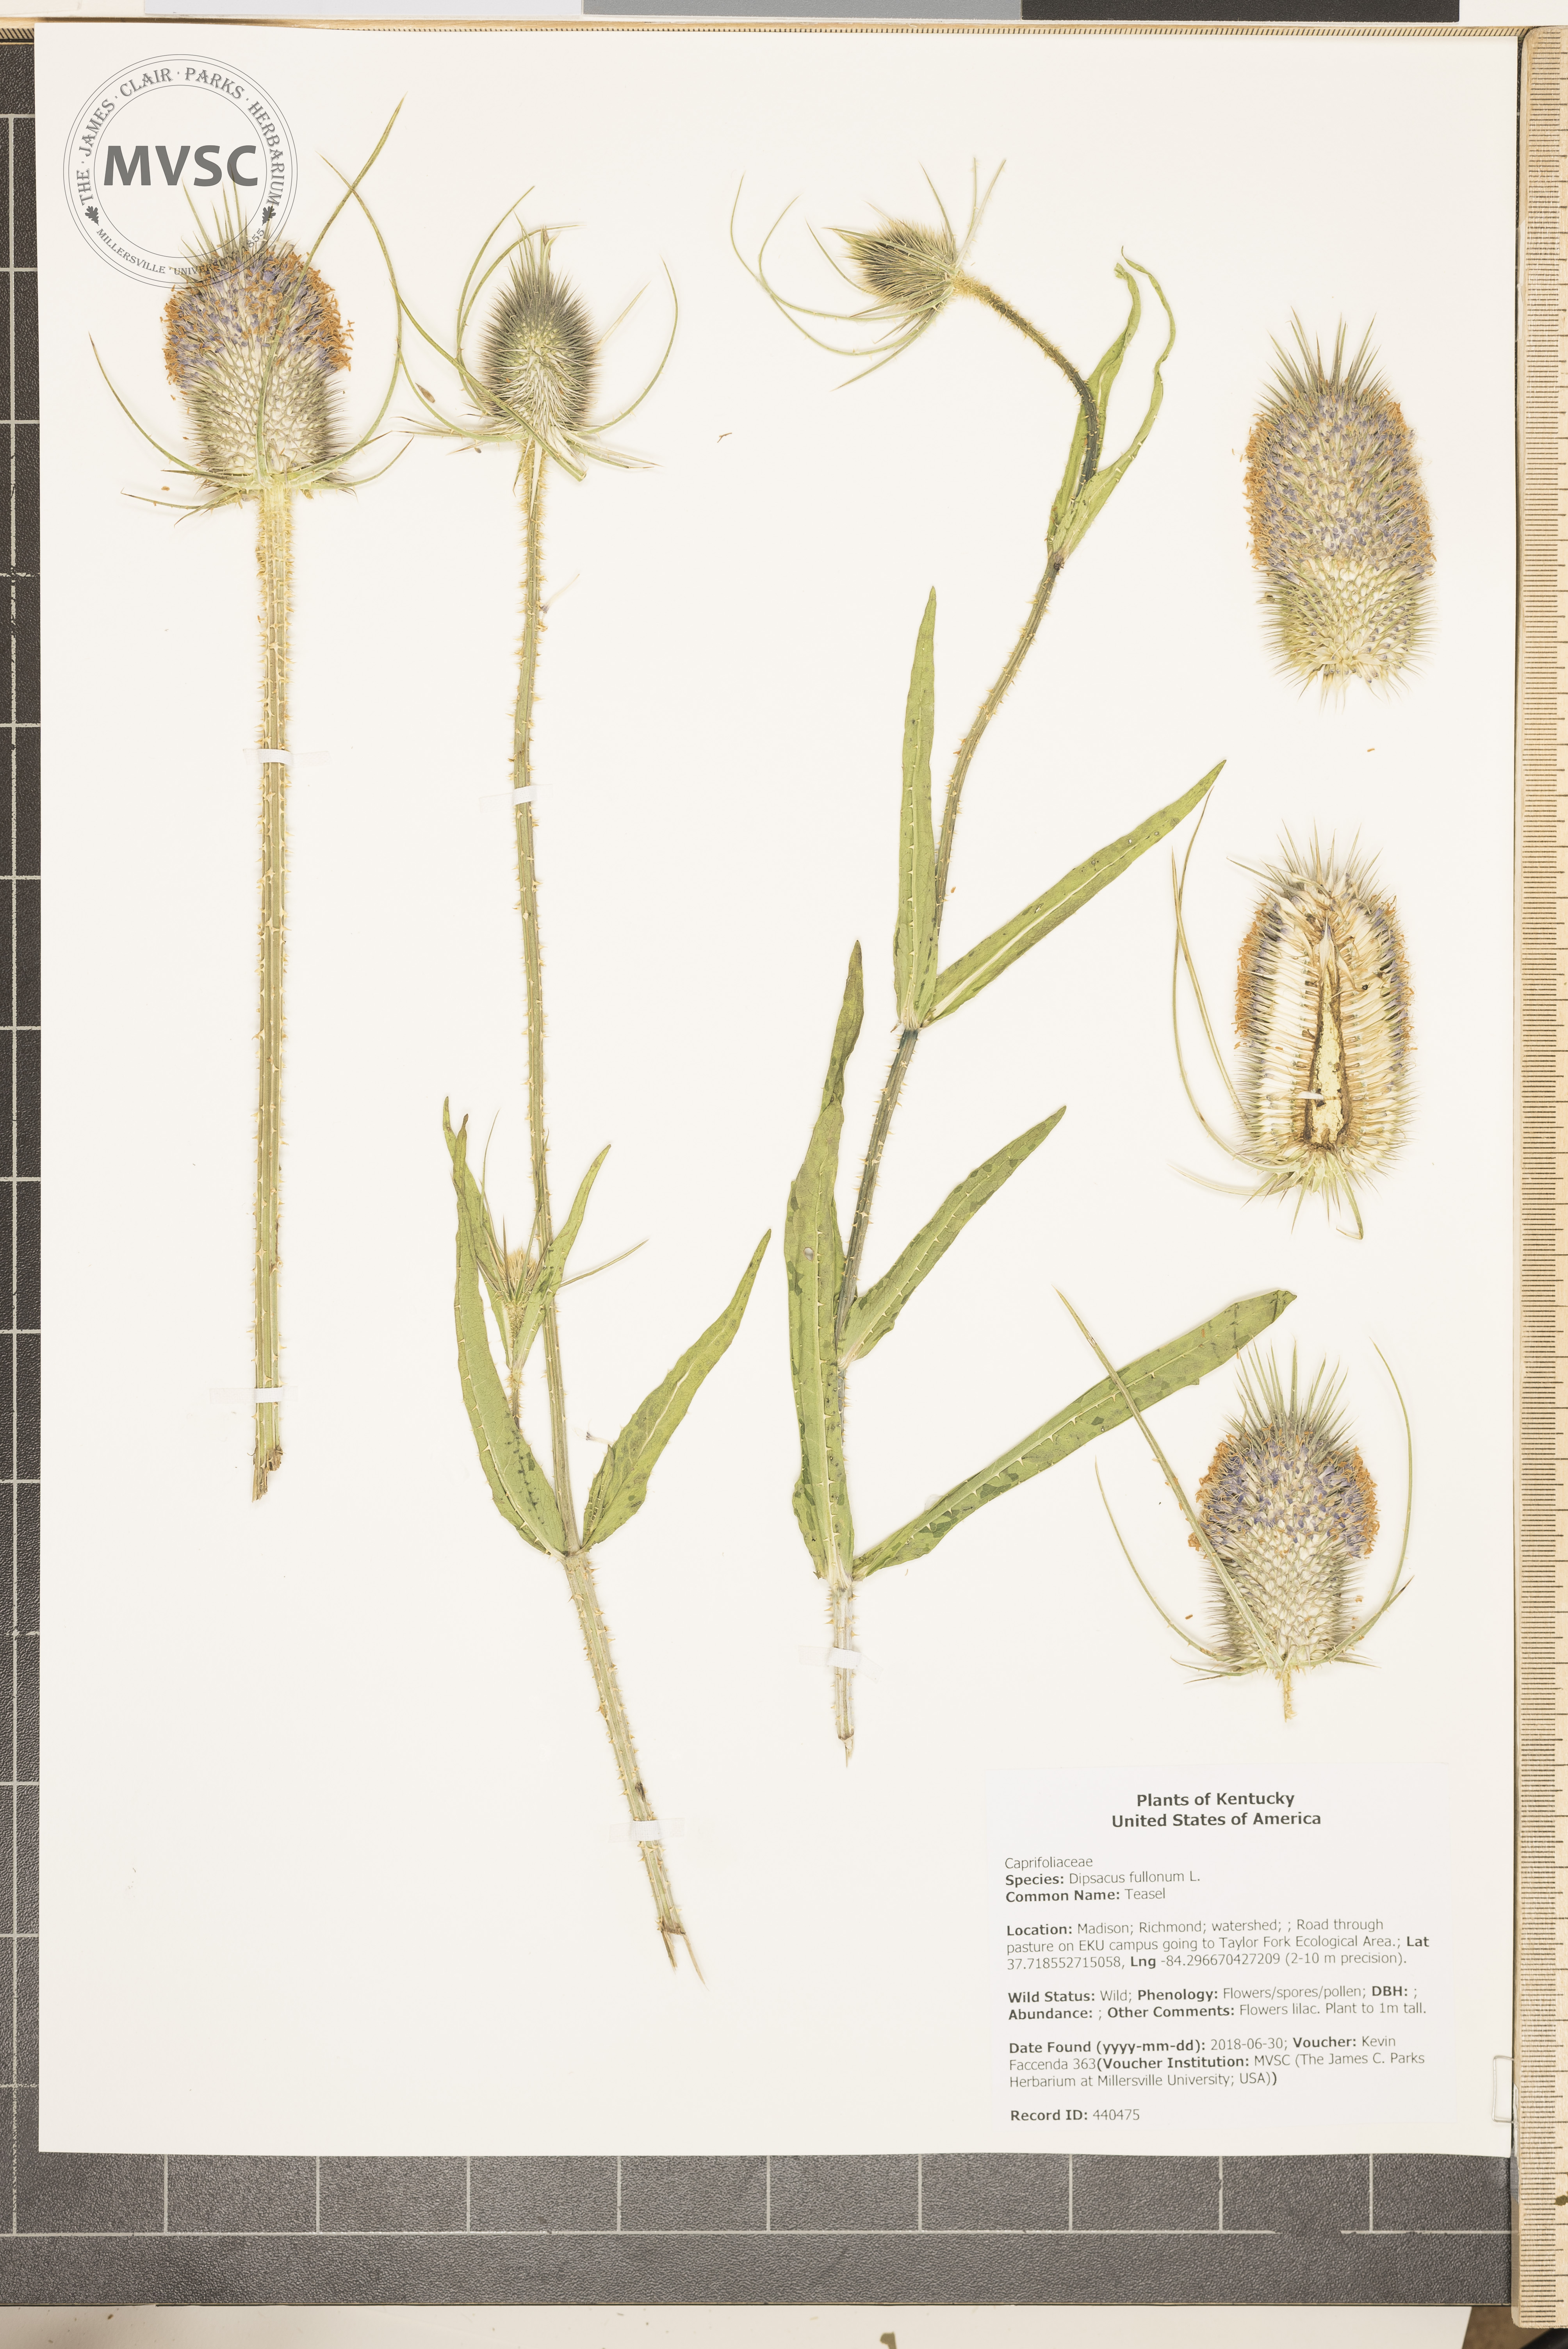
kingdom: Plantae
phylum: Tracheophyta
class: Magnoliopsida
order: Dipsacales
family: Caprifoliaceae
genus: Dipsacus
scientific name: Dipsacus fullonum
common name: Teasel
